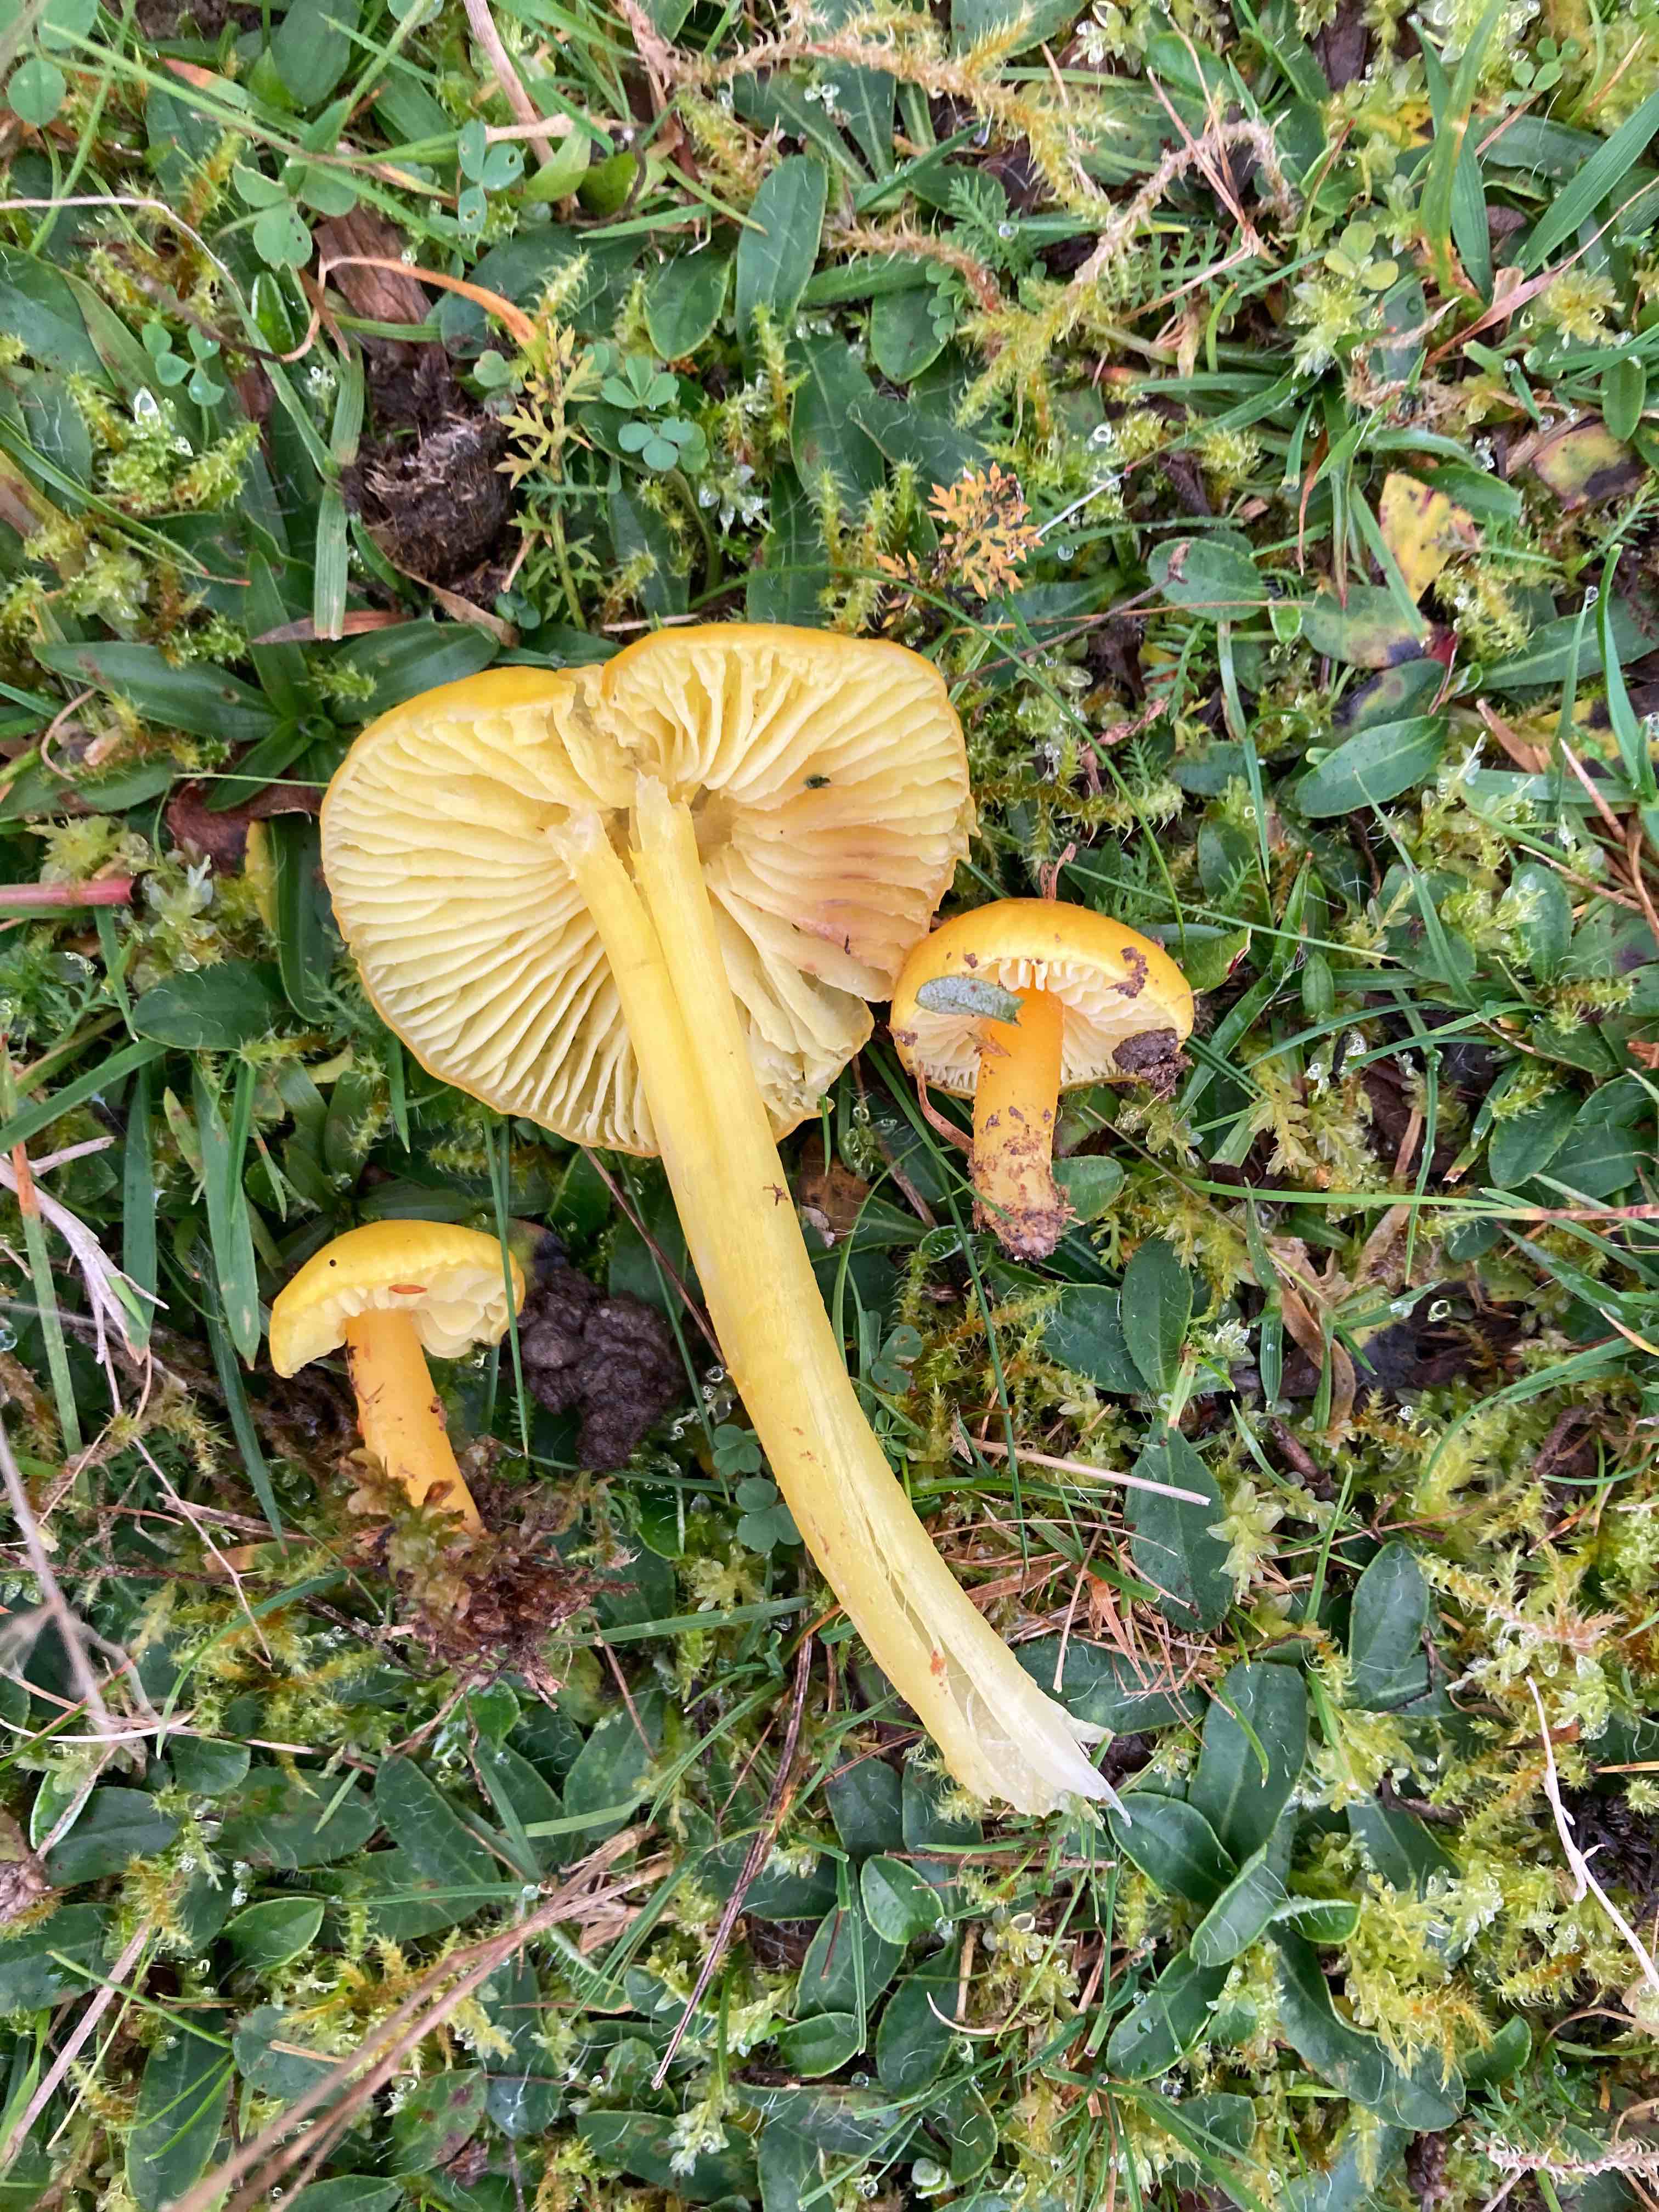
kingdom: Fungi
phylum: Basidiomycota
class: Agaricomycetes
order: Agaricales
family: Hygrophoraceae
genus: Hygrocybe
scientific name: Hygrocybe chlorophana
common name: gul vokshat
